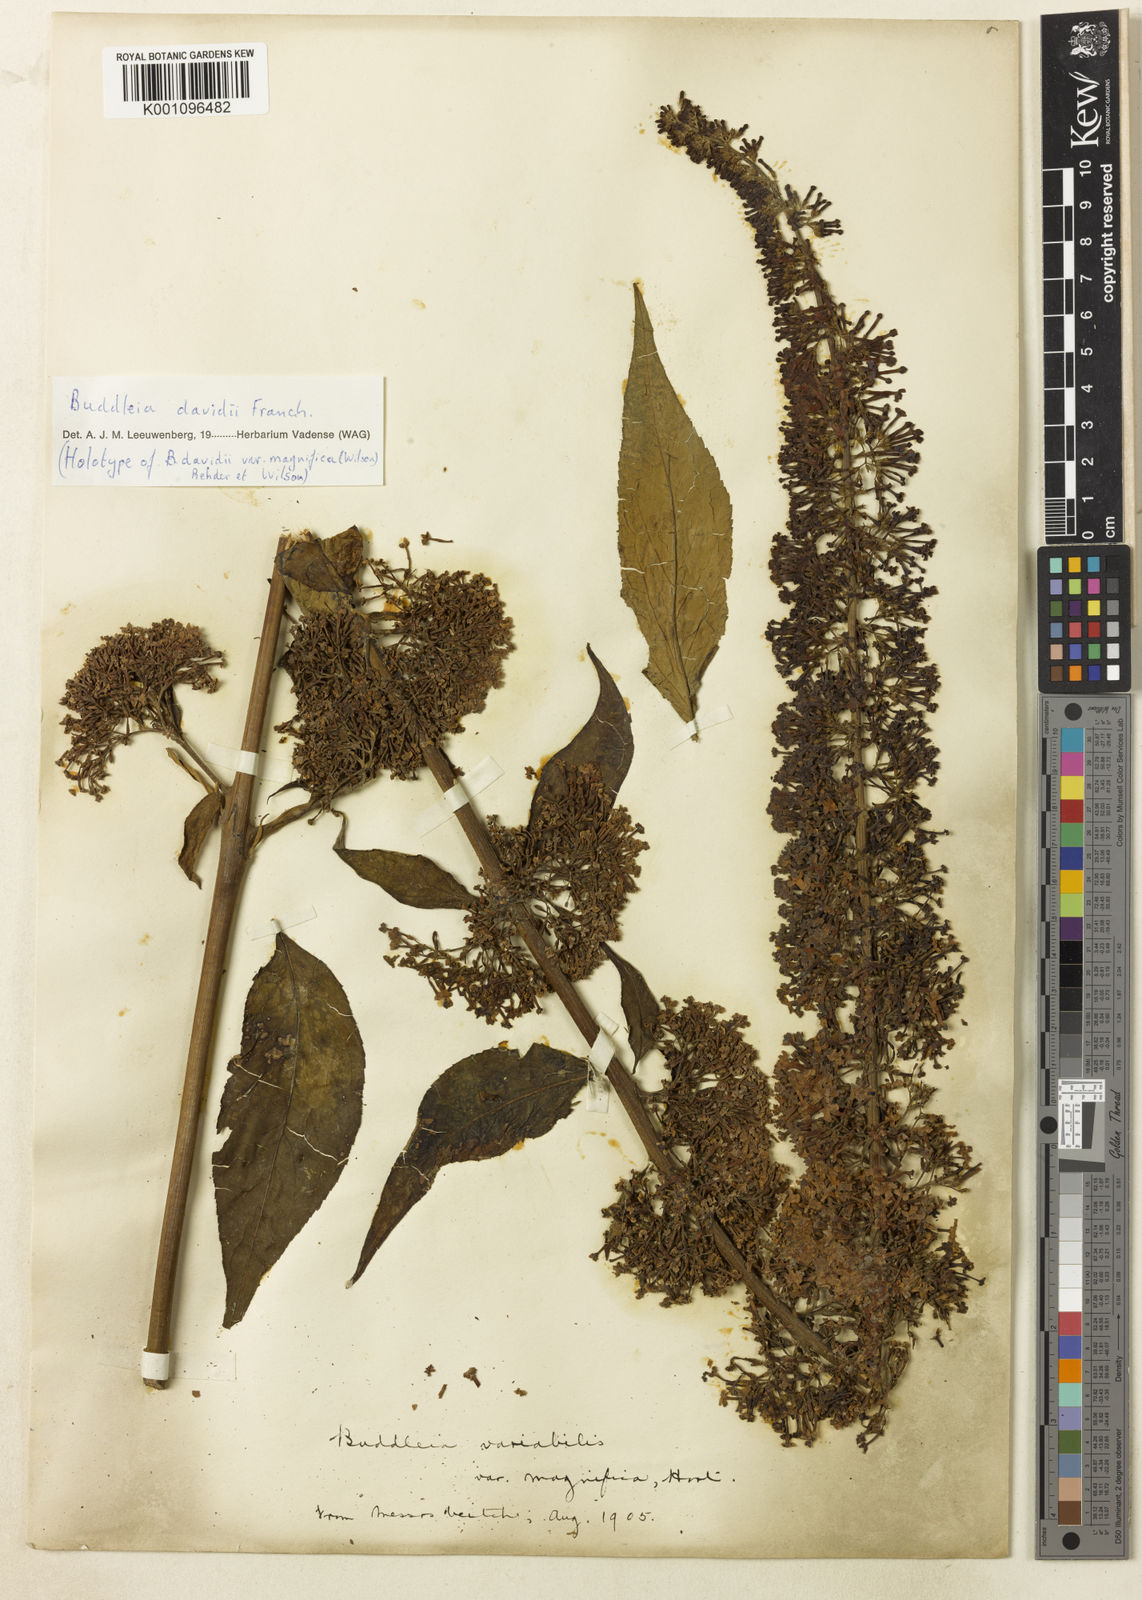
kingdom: Plantae
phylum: Tracheophyta
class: Magnoliopsida
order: Lamiales
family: Scrophulariaceae
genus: Buddleja
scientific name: Buddleja davidii
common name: Butterfly-bush
